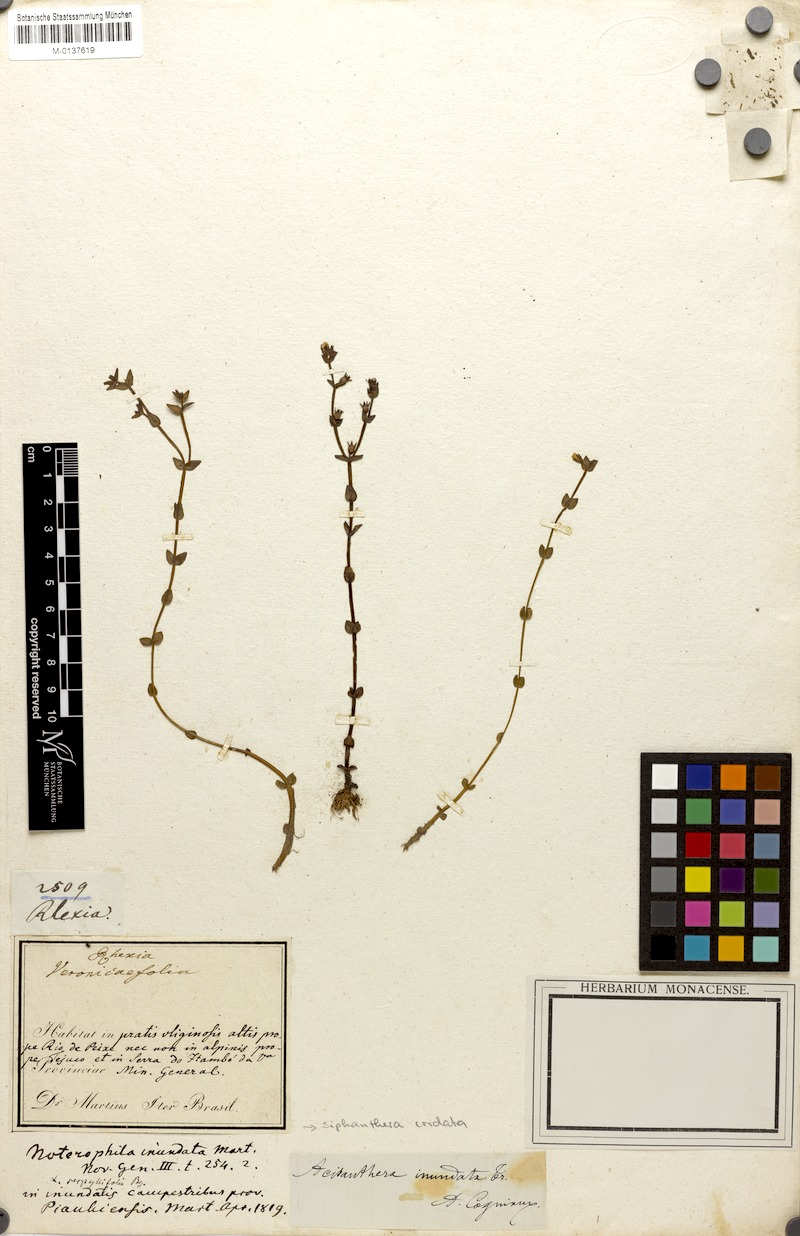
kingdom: Plantae
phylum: Tracheophyta
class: Magnoliopsida
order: Myrtales
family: Melastomataceae
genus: Noterophila
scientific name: Noterophila inundata
